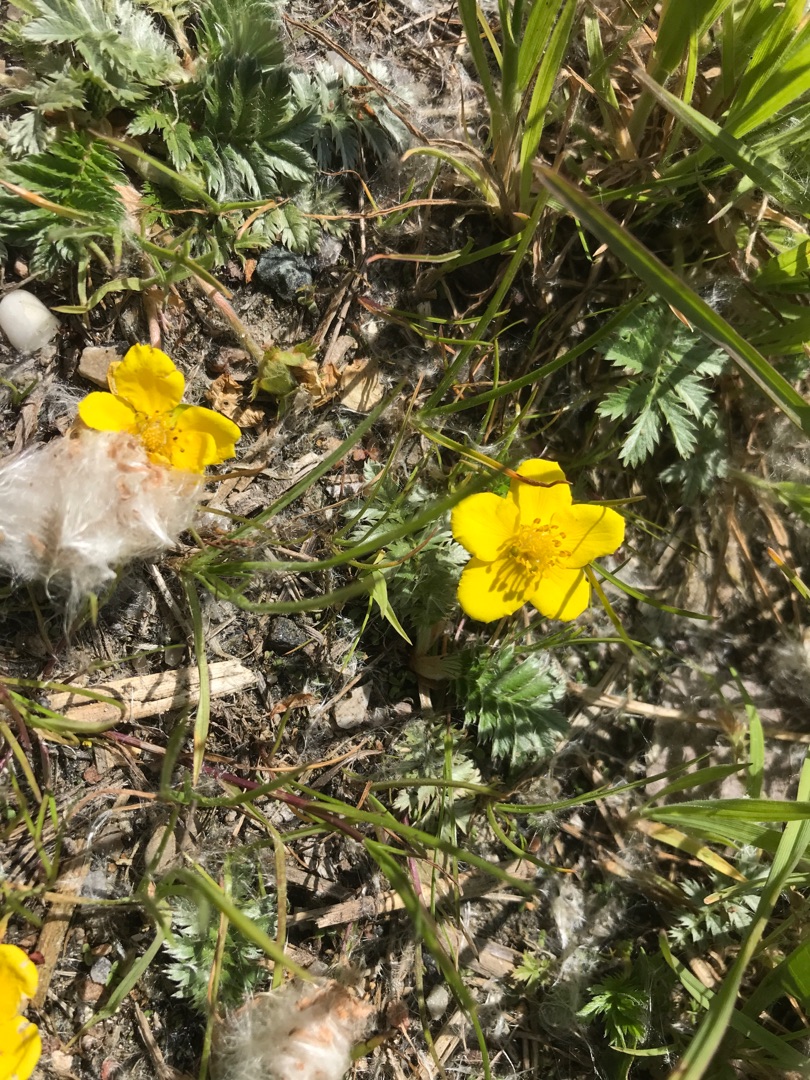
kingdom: Plantae
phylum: Tracheophyta
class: Magnoliopsida
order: Rosales
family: Rosaceae
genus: Argentina
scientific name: Argentina anserina
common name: Gåsepotentil
